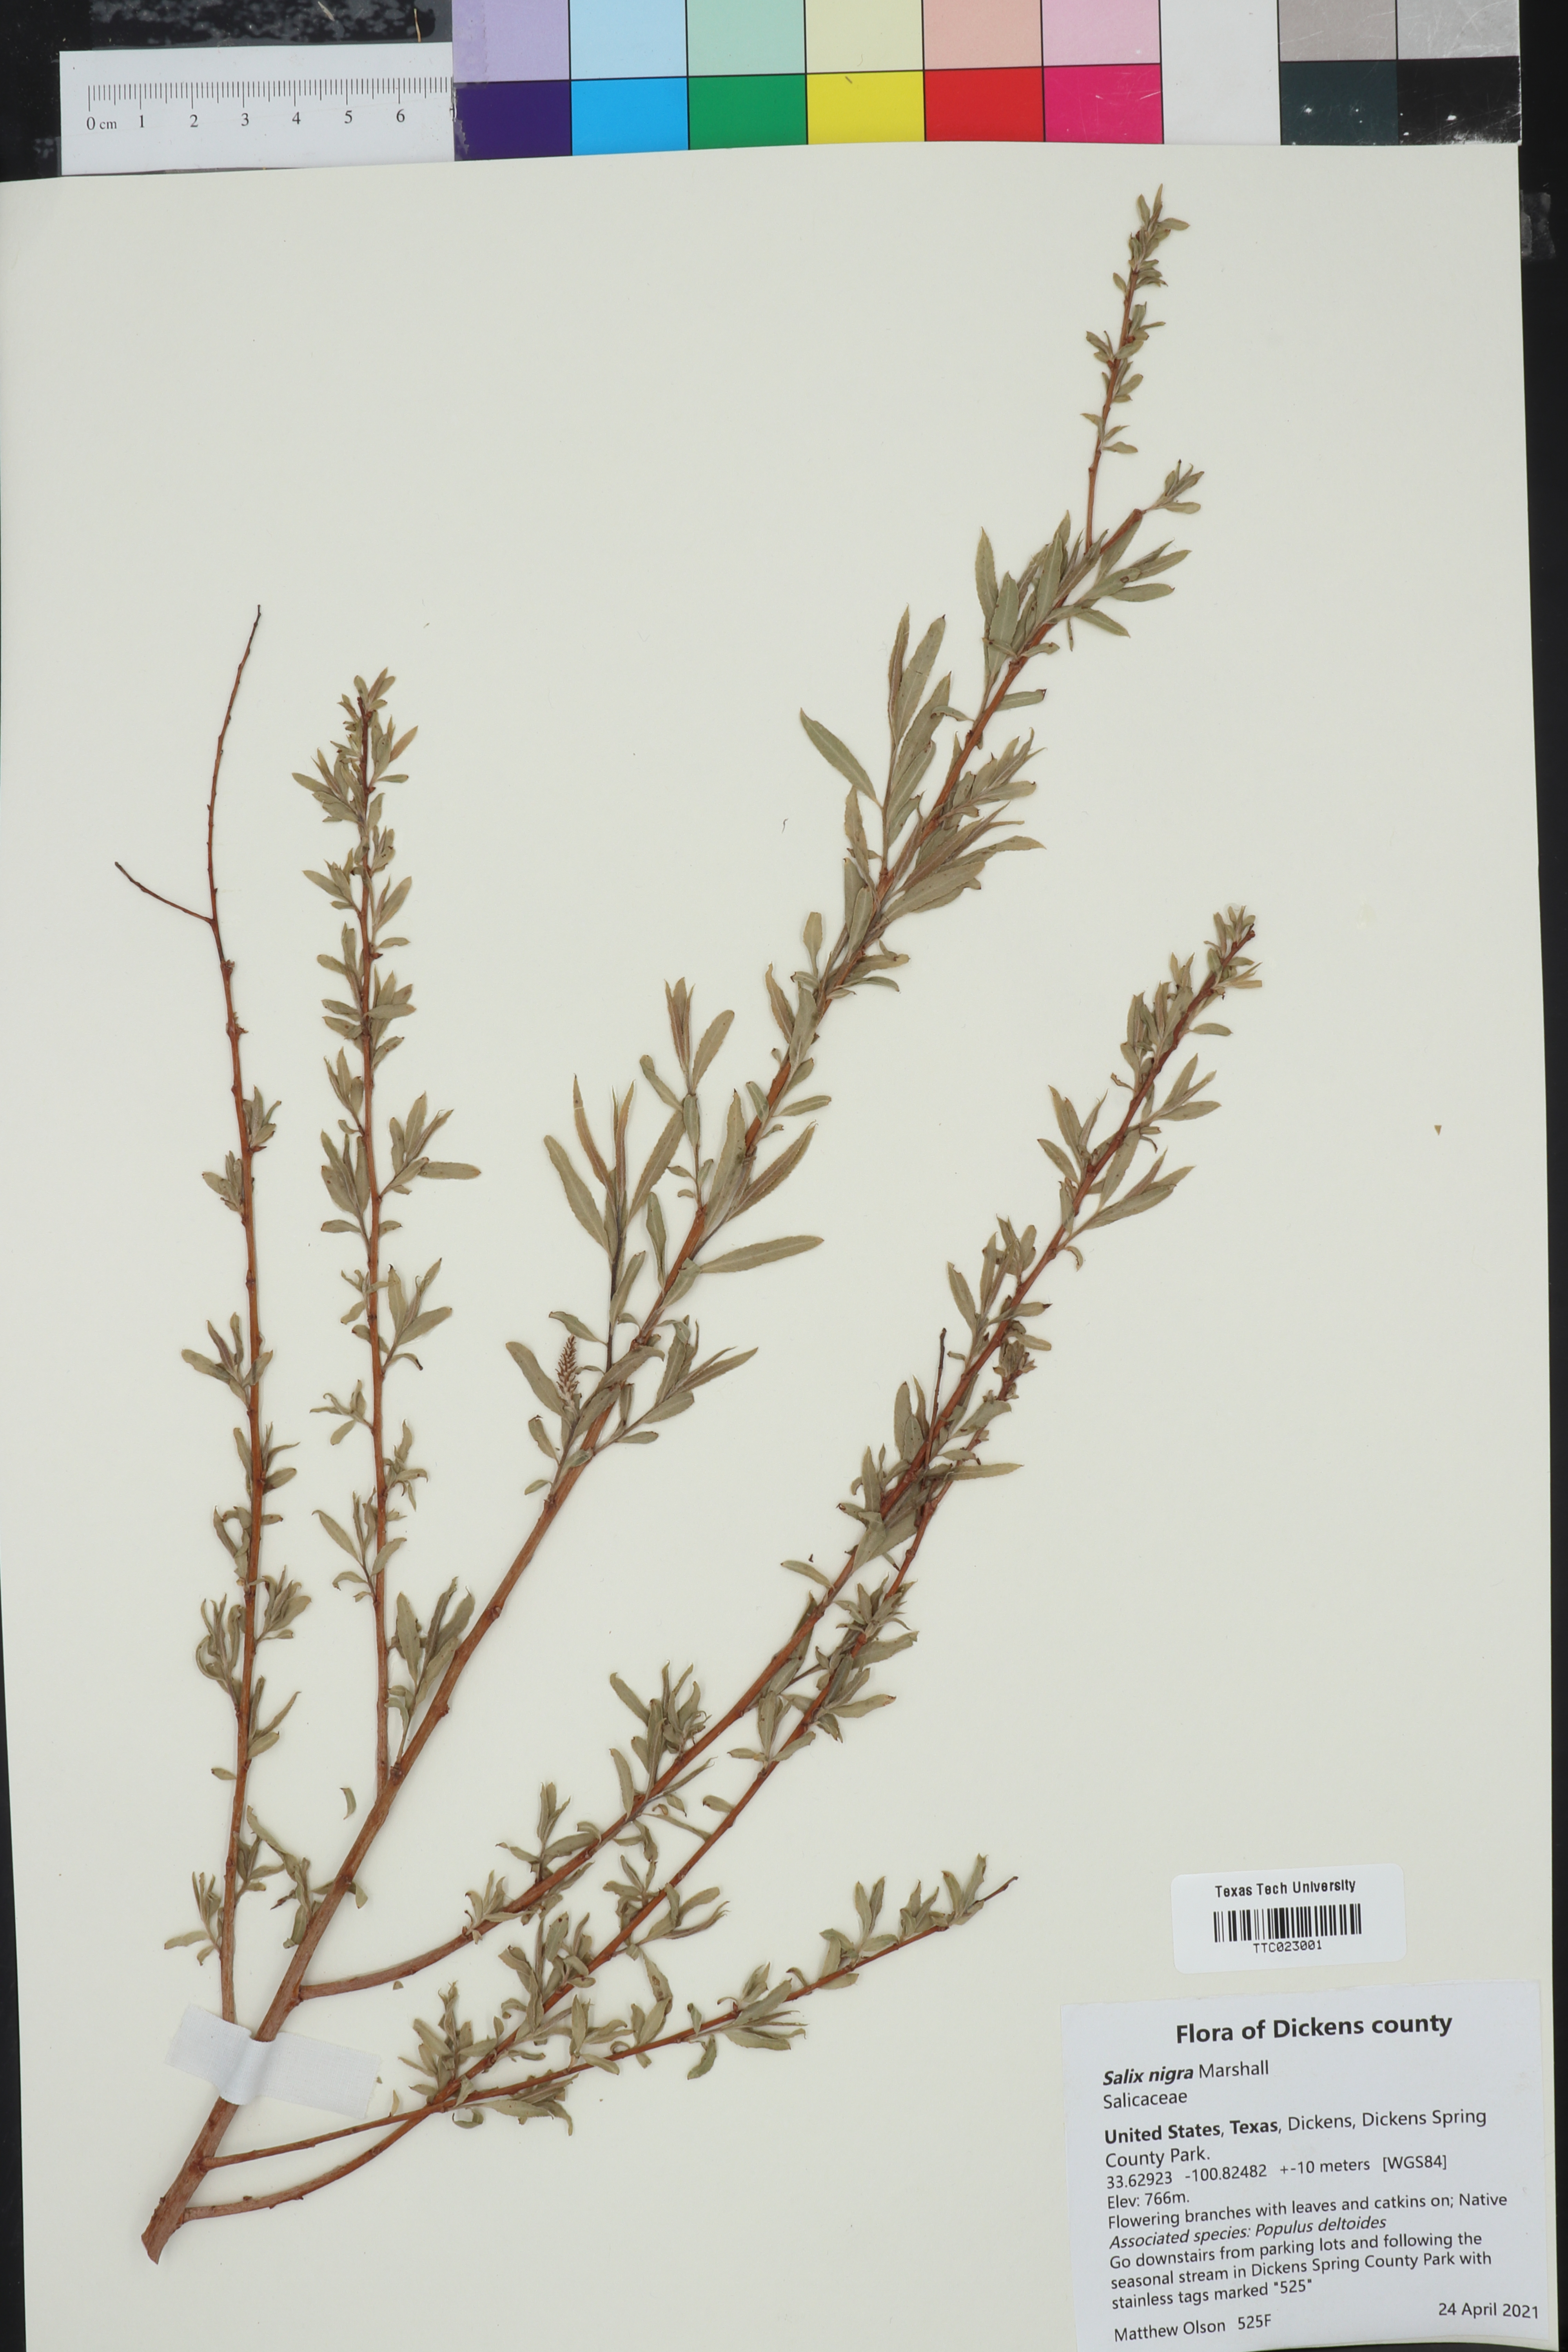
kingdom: Plantae
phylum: Tracheophyta
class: Magnoliopsida
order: Malpighiales
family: Salicaceae
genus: Salix
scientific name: Salix nigra
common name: Black willow
